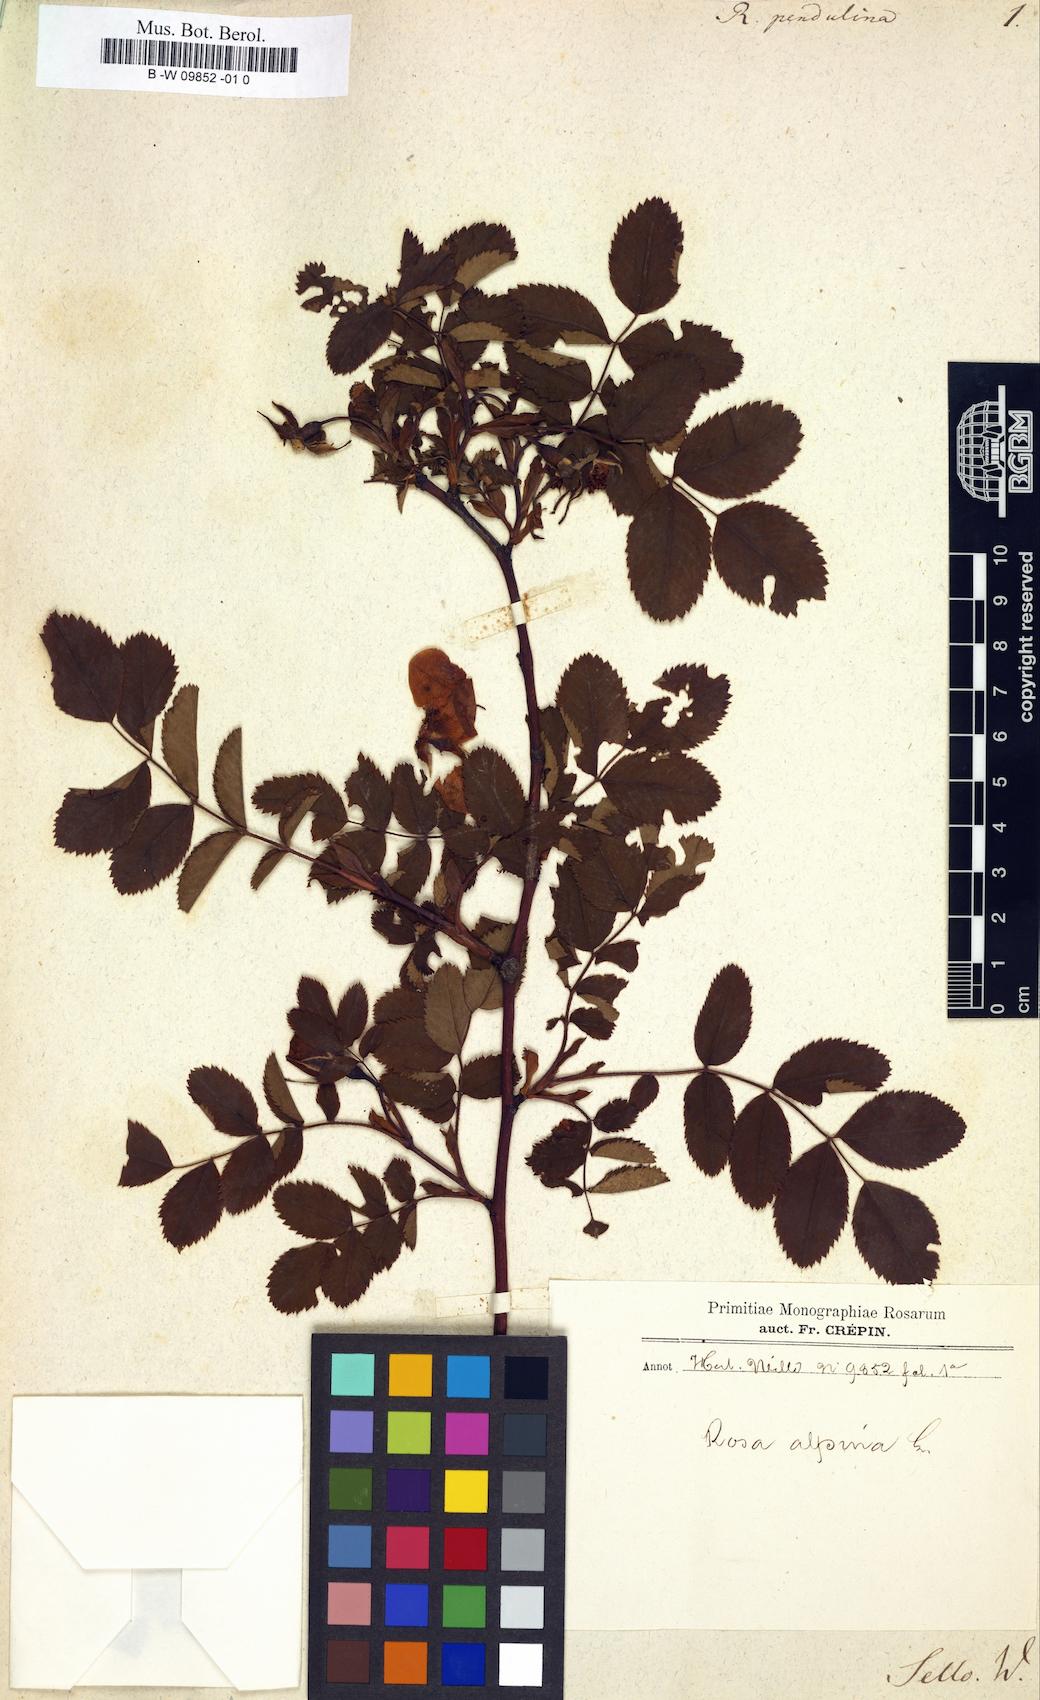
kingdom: Plantae
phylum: Tracheophyta
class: Magnoliopsida
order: Rosales
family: Rosaceae
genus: Rosa
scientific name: Rosa pendulina
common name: Alpine rose
